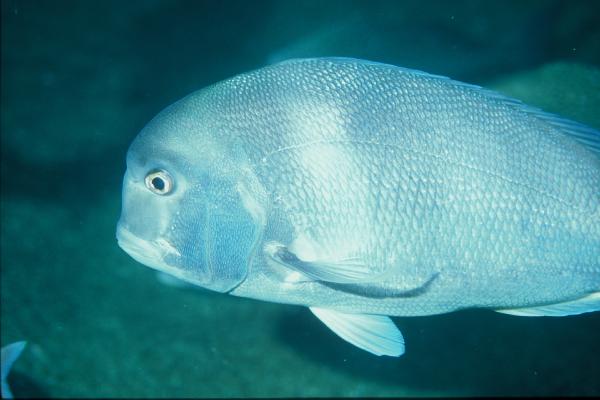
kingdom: Animalia
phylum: Chordata
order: Perciformes
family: Sparidae
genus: Chrysoblephus
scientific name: Chrysoblephus anglicus
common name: Englishman
